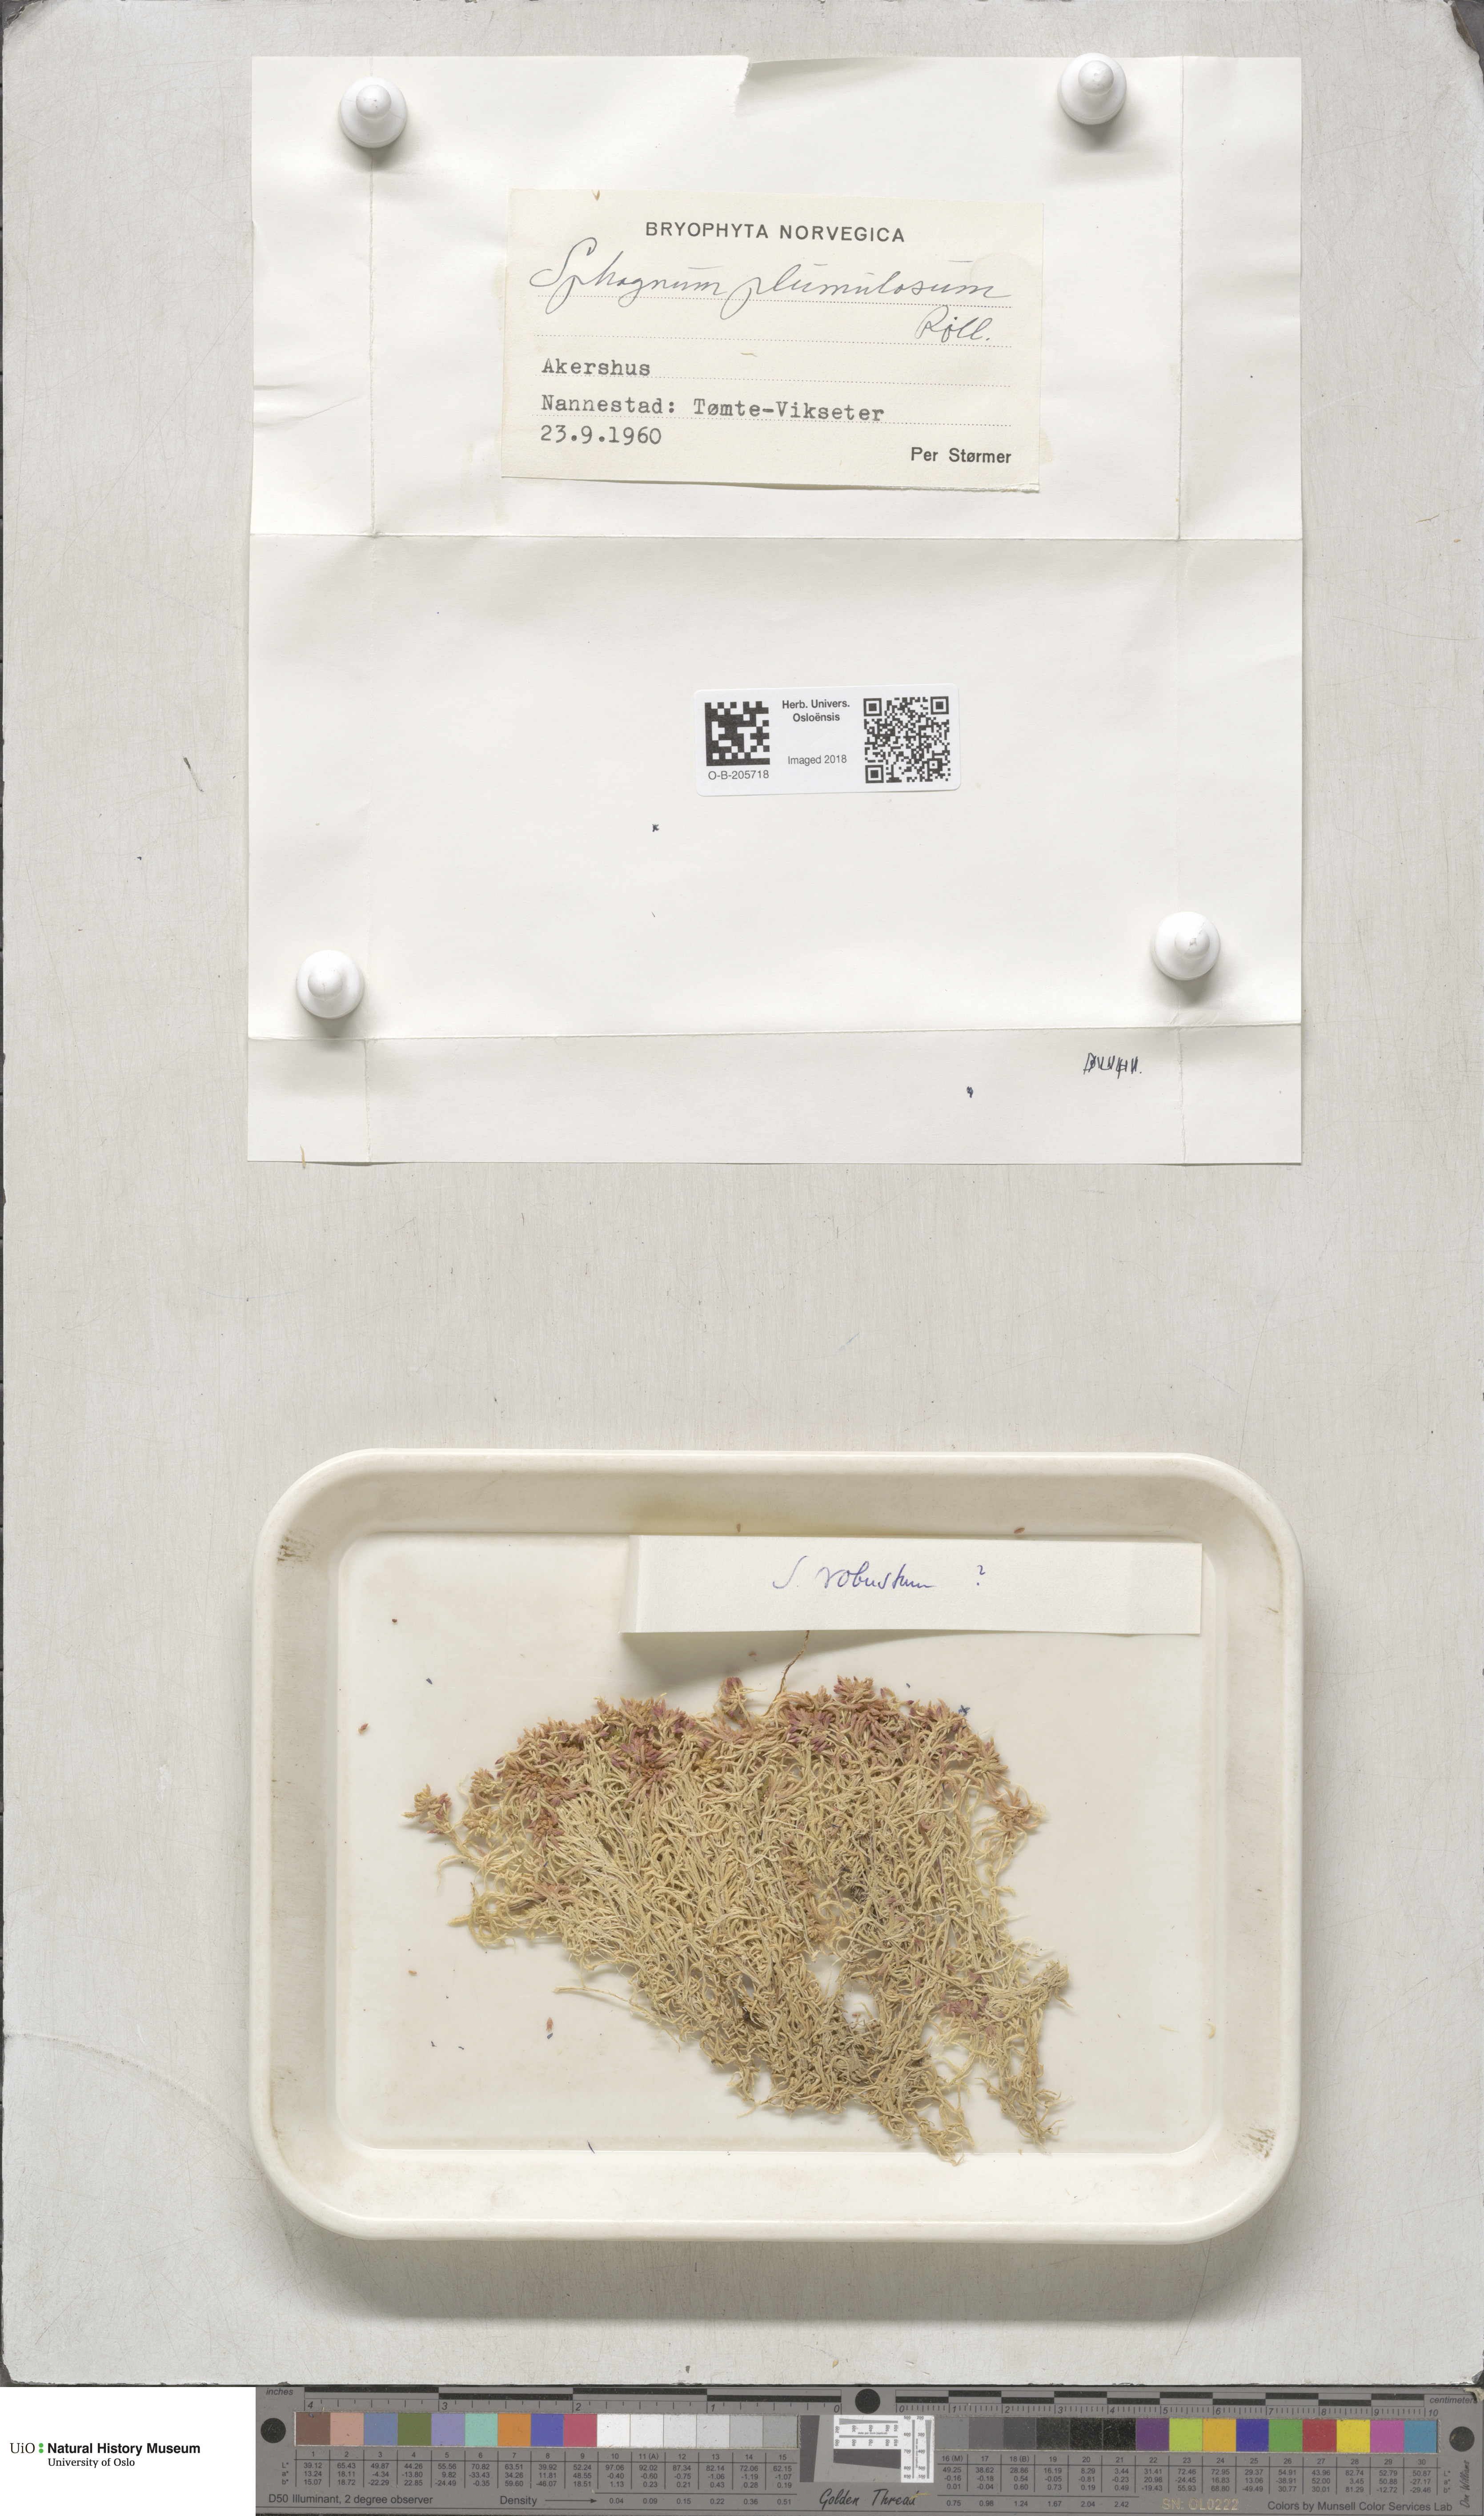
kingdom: Plantae
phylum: Bryophyta
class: Sphagnopsida
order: Sphagnales
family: Sphagnaceae
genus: Sphagnum
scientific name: Sphagnum russowii
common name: Russow's peat moss
